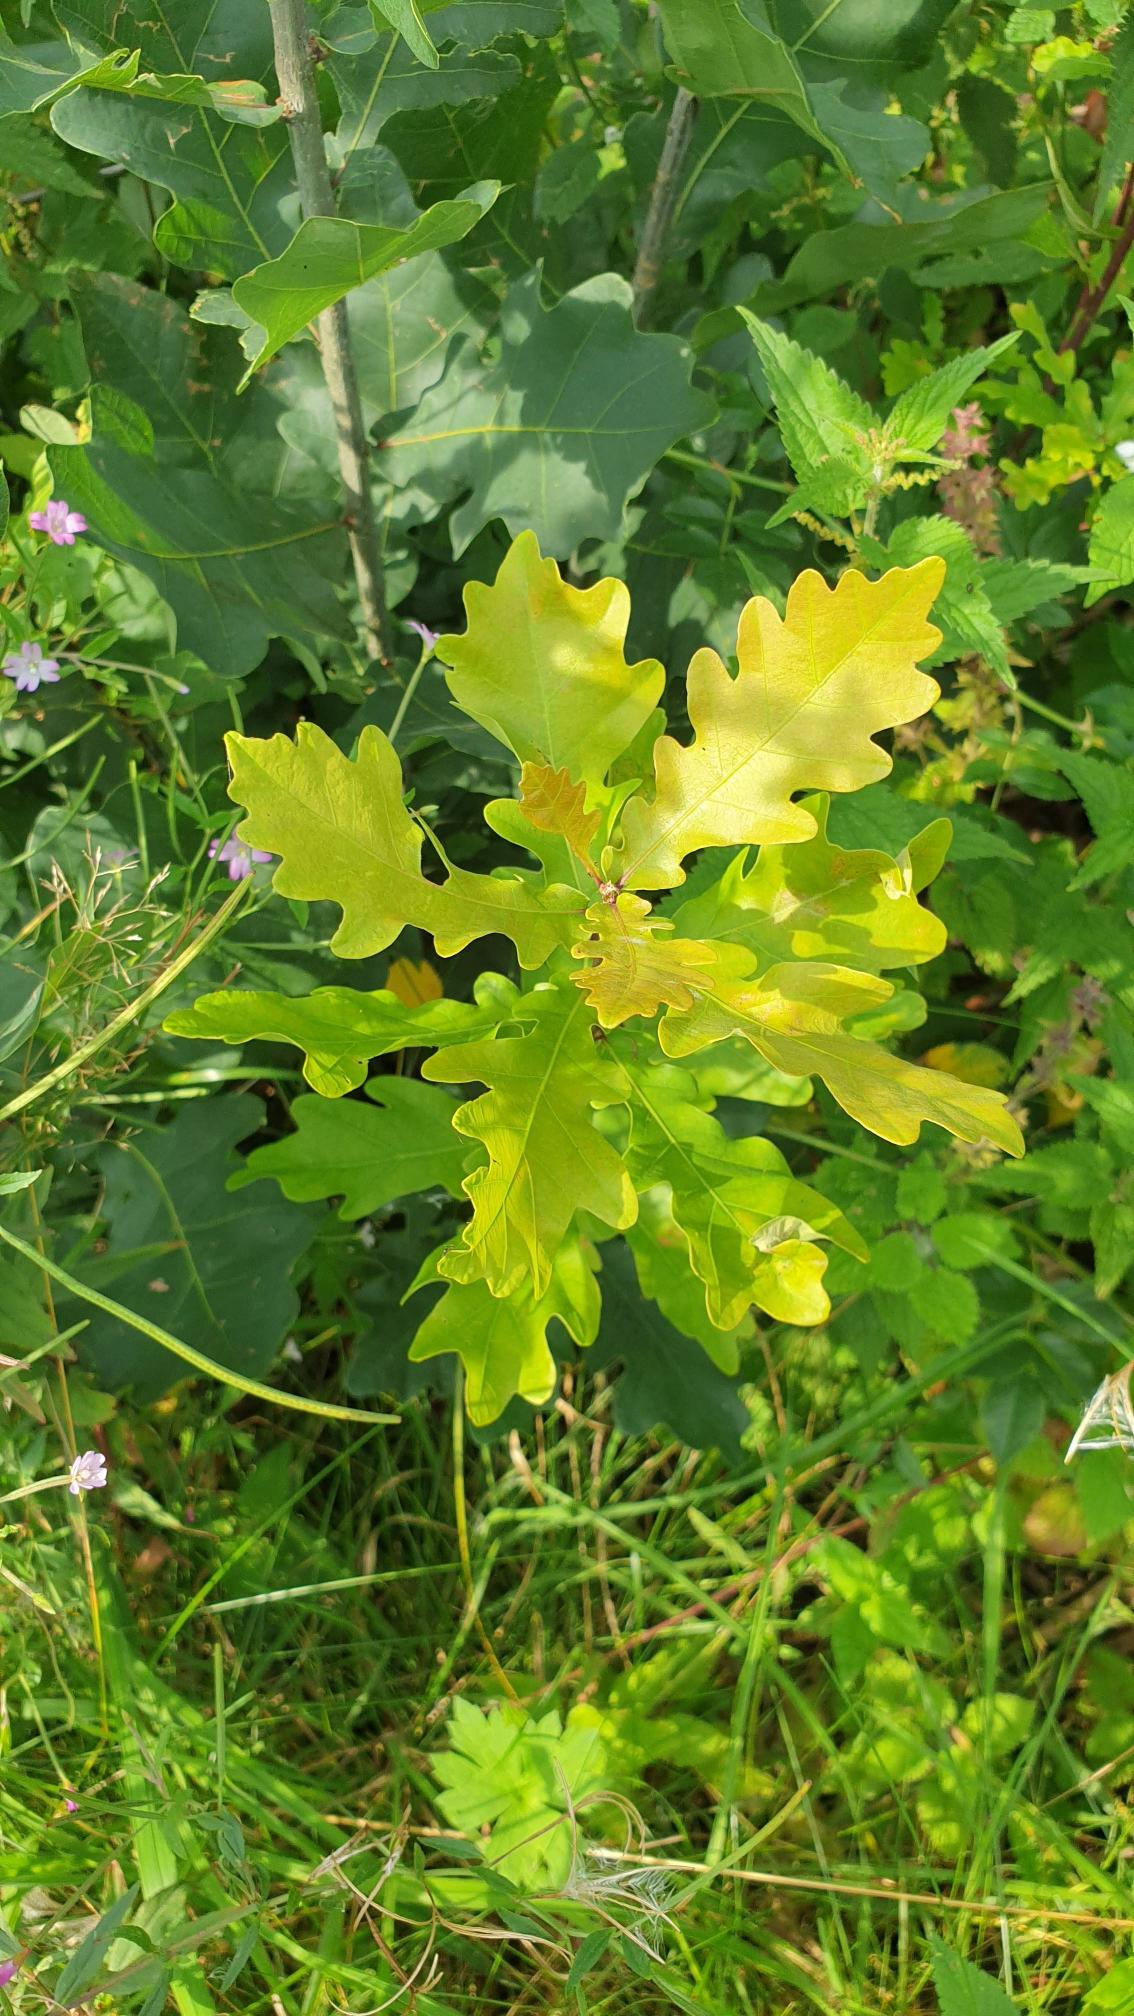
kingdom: Plantae
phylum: Tracheophyta
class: Magnoliopsida
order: Fagales
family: Fagaceae
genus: Quercus
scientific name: Quercus robur
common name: Stilk-eg/almindelig eg
